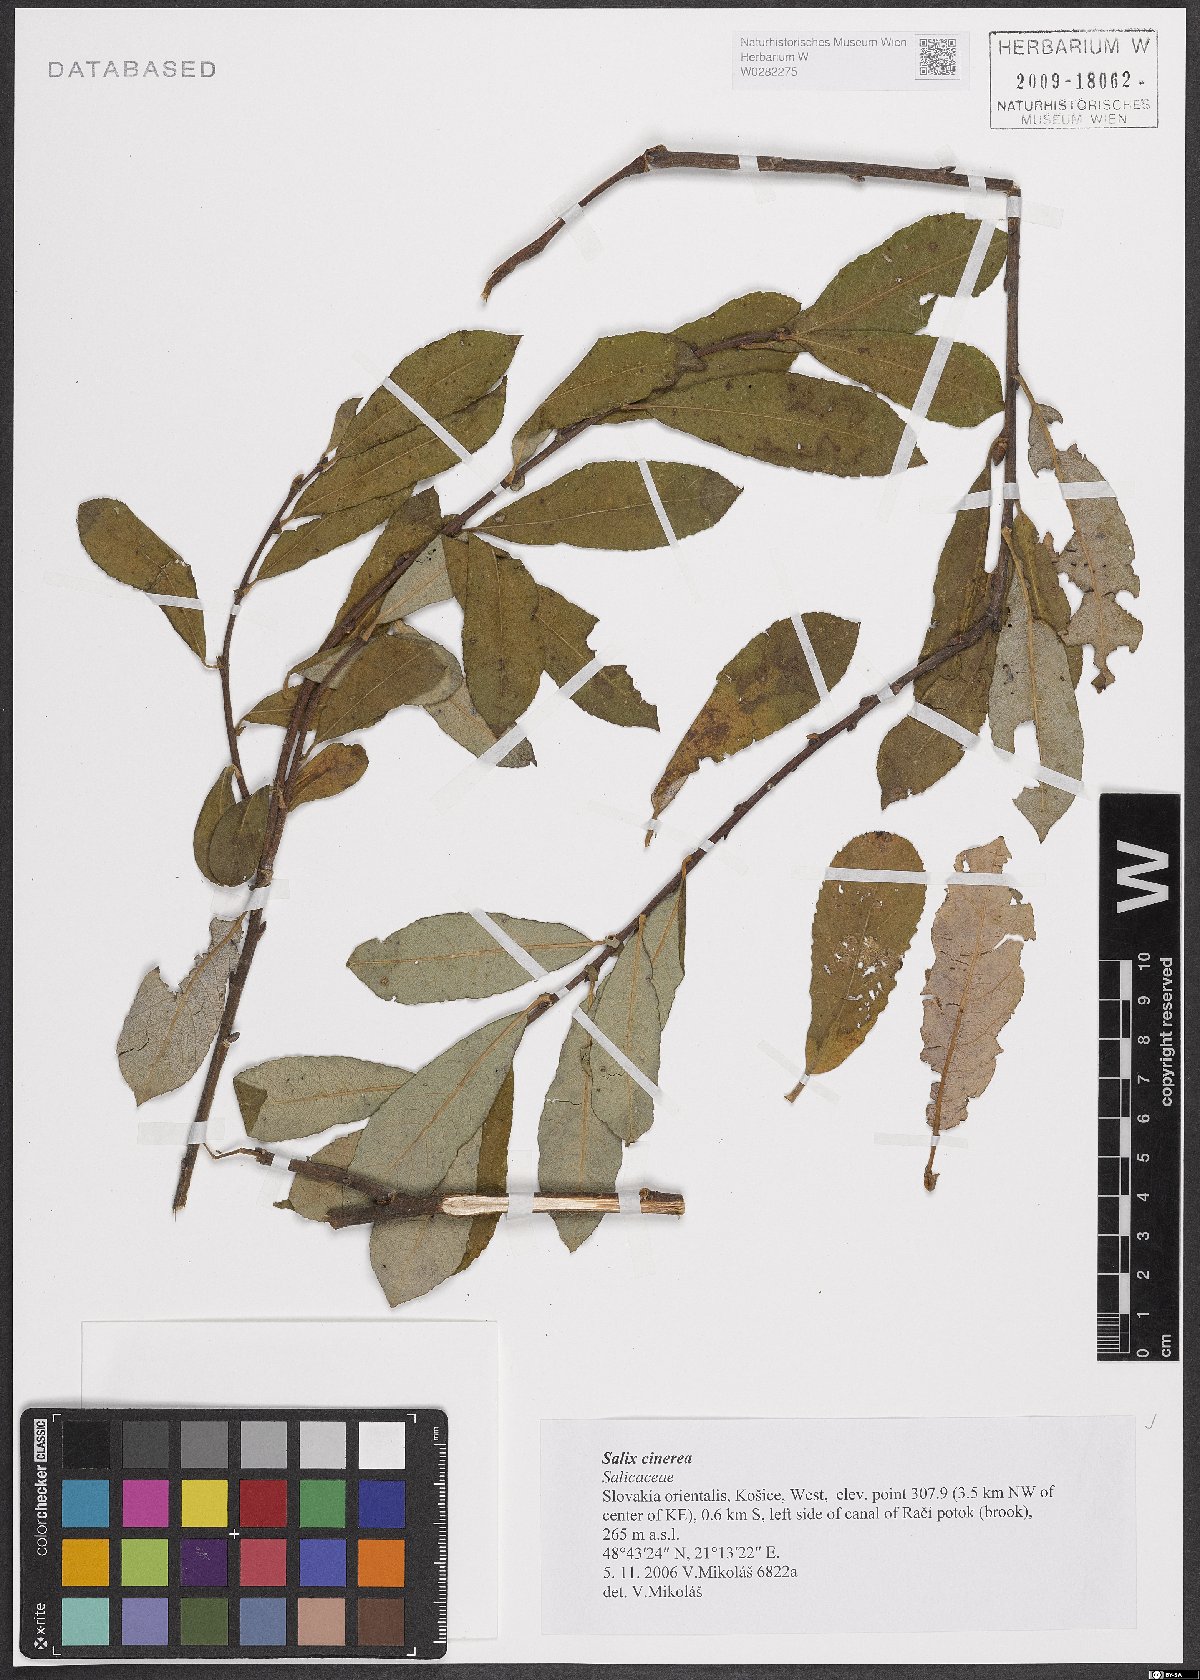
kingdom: Plantae
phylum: Tracheophyta
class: Magnoliopsida
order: Malpighiales
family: Salicaceae
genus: Salix
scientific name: Salix cinerea
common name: Common sallow
